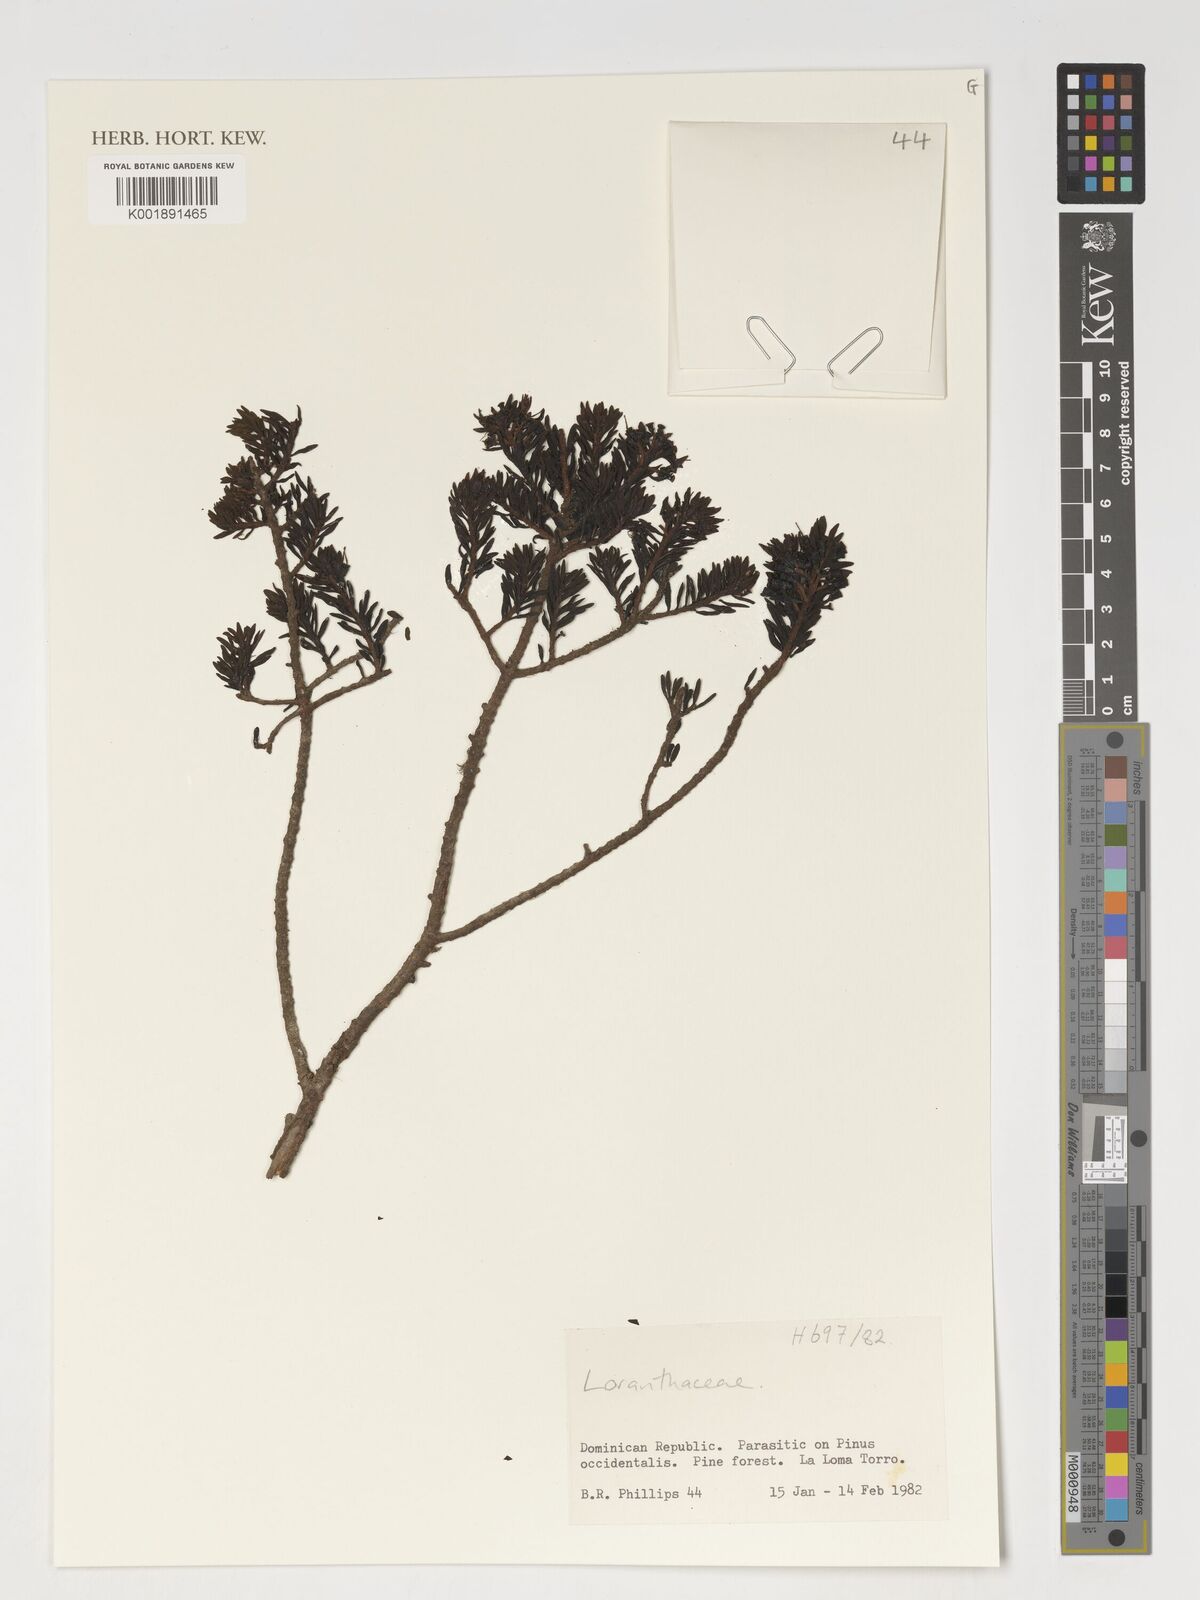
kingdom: Plantae
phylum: Tracheophyta
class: Magnoliopsida
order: Santalales
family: Loranthaceae
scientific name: Loranthaceae
